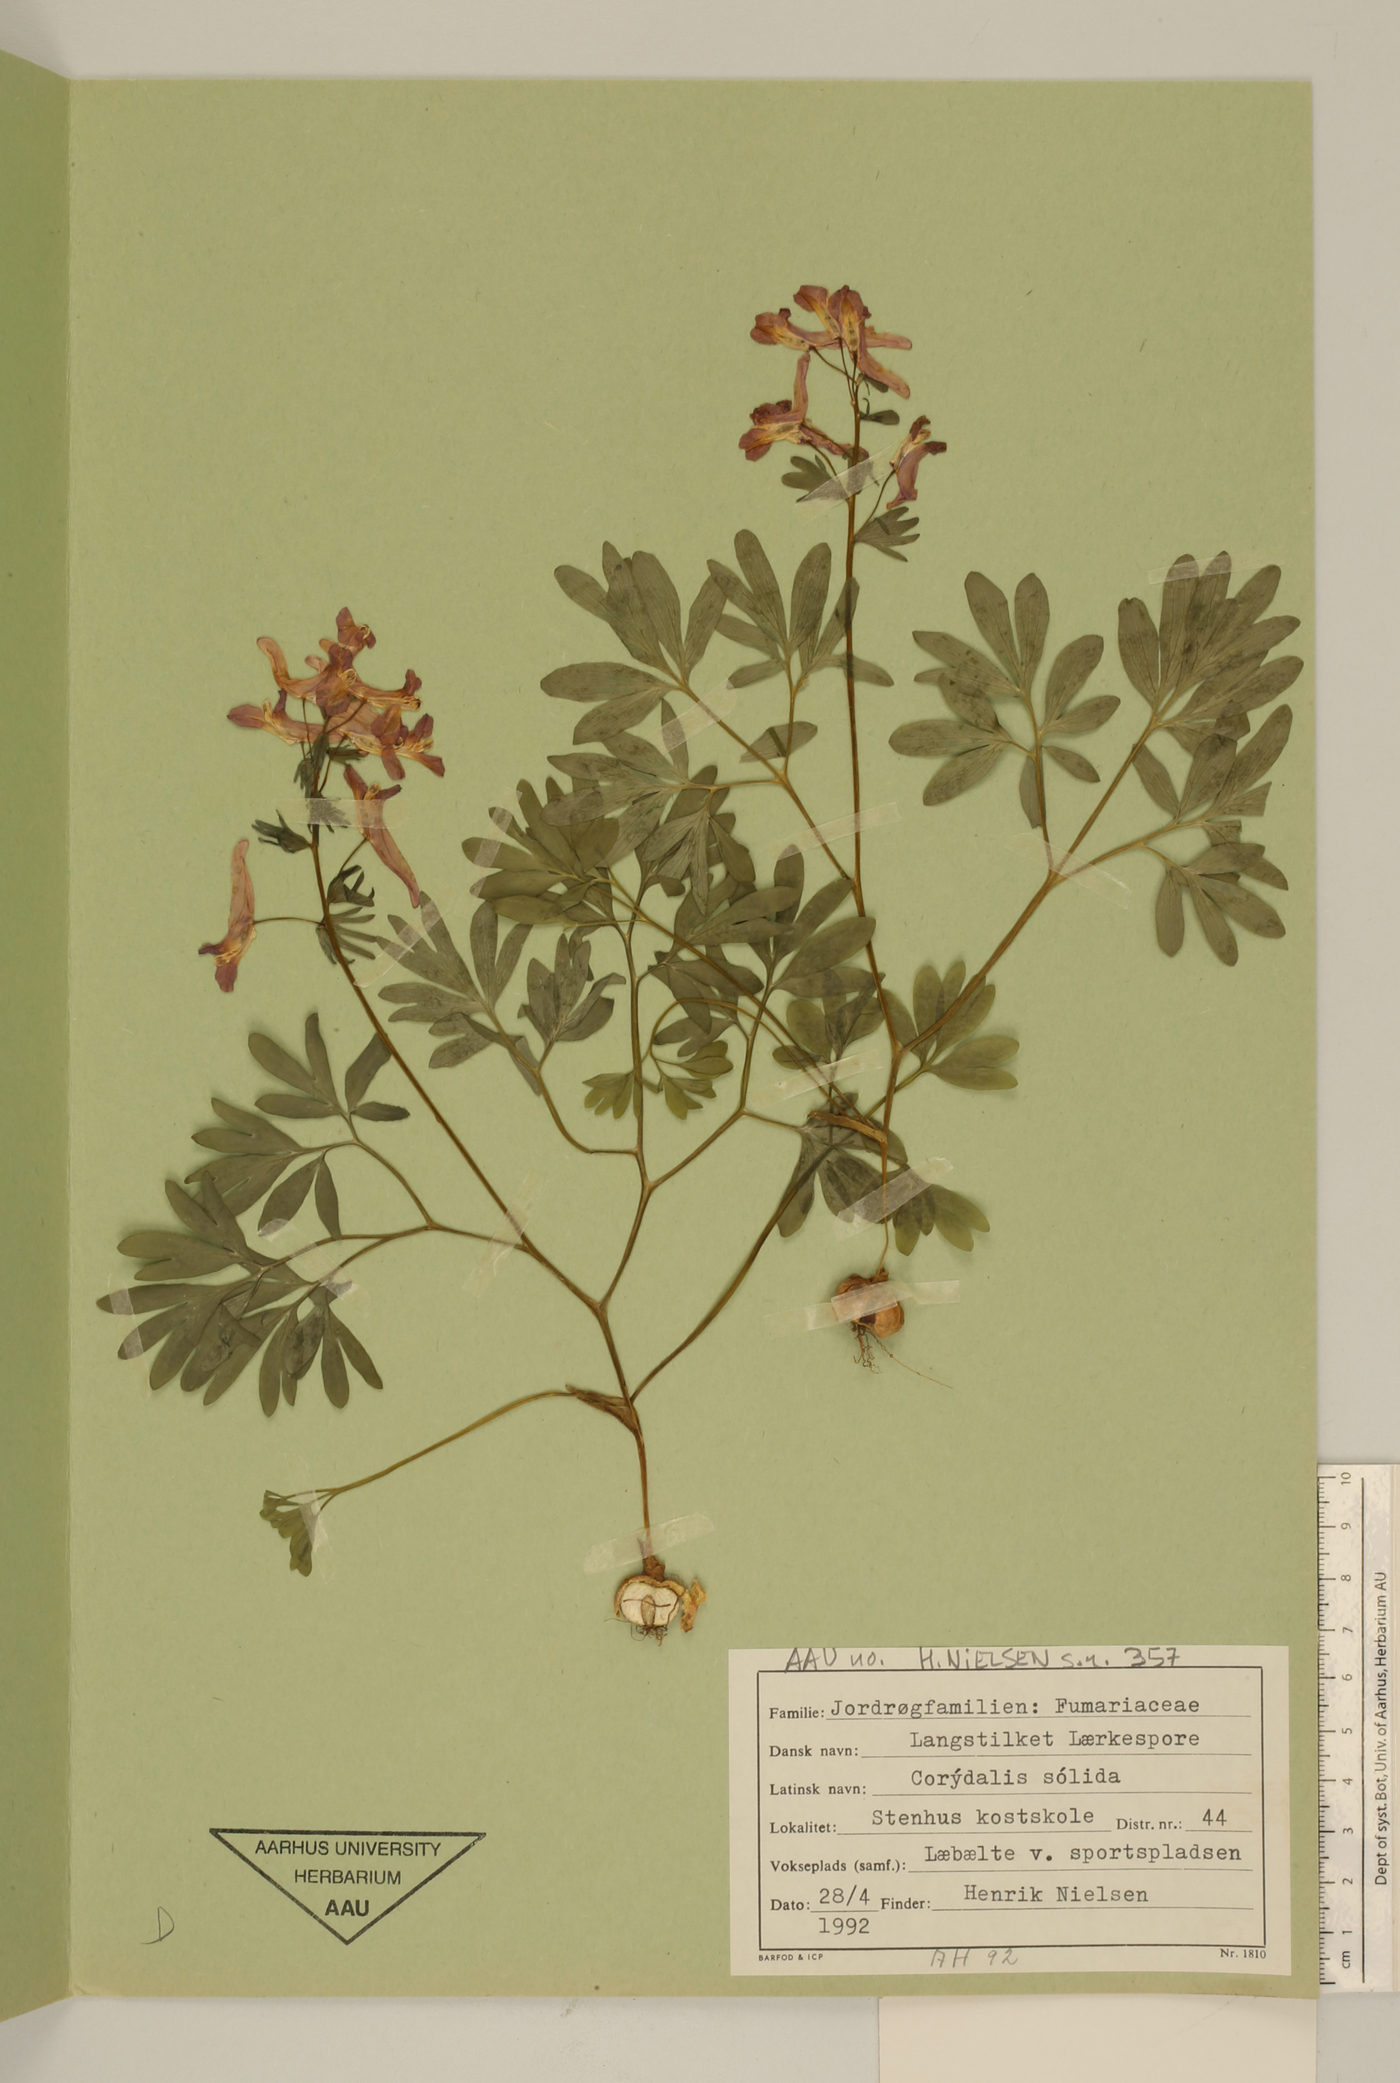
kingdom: Plantae
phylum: Tracheophyta
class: Magnoliopsida
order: Ranunculales
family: Papaveraceae
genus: Corydalis
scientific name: Corydalis solida
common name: Bird-in-a-bush
